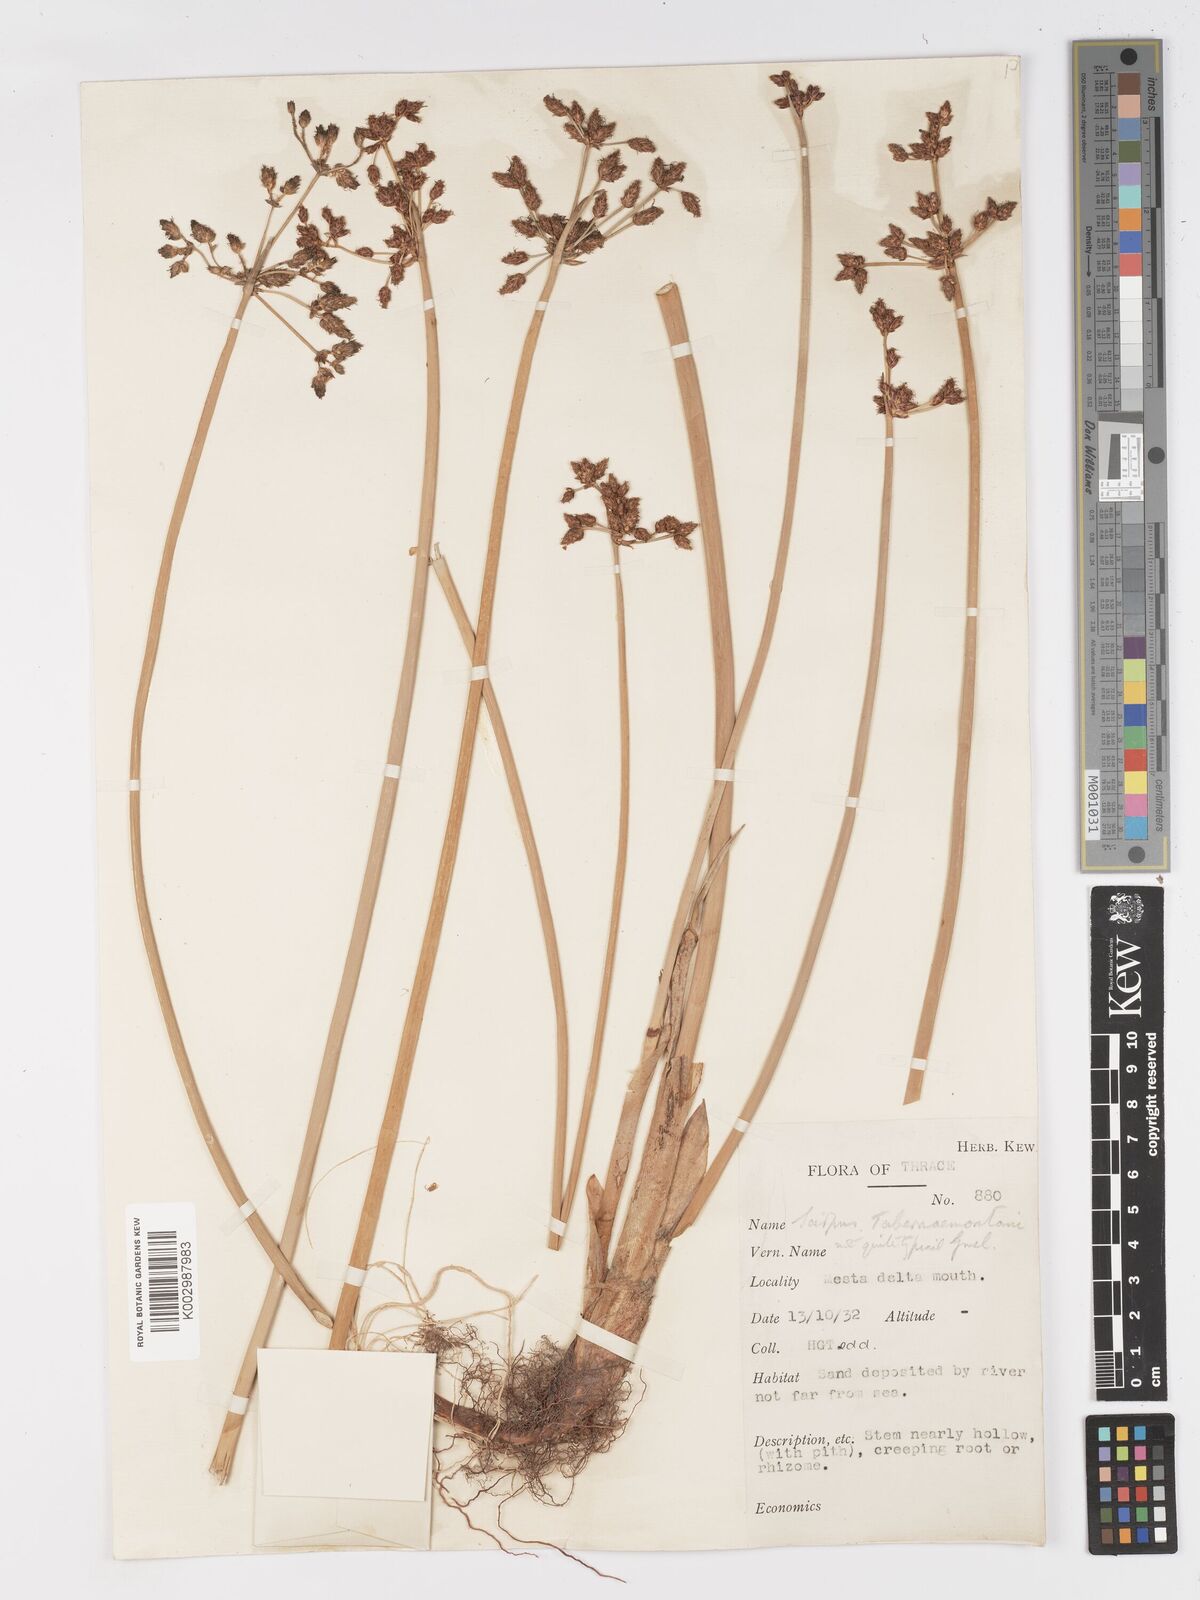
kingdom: Plantae
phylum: Tracheophyta
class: Liliopsida
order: Poales
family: Cyperaceae
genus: Schoenoplectus
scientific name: Schoenoplectus tabernaemontani
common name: Grey club-rush
